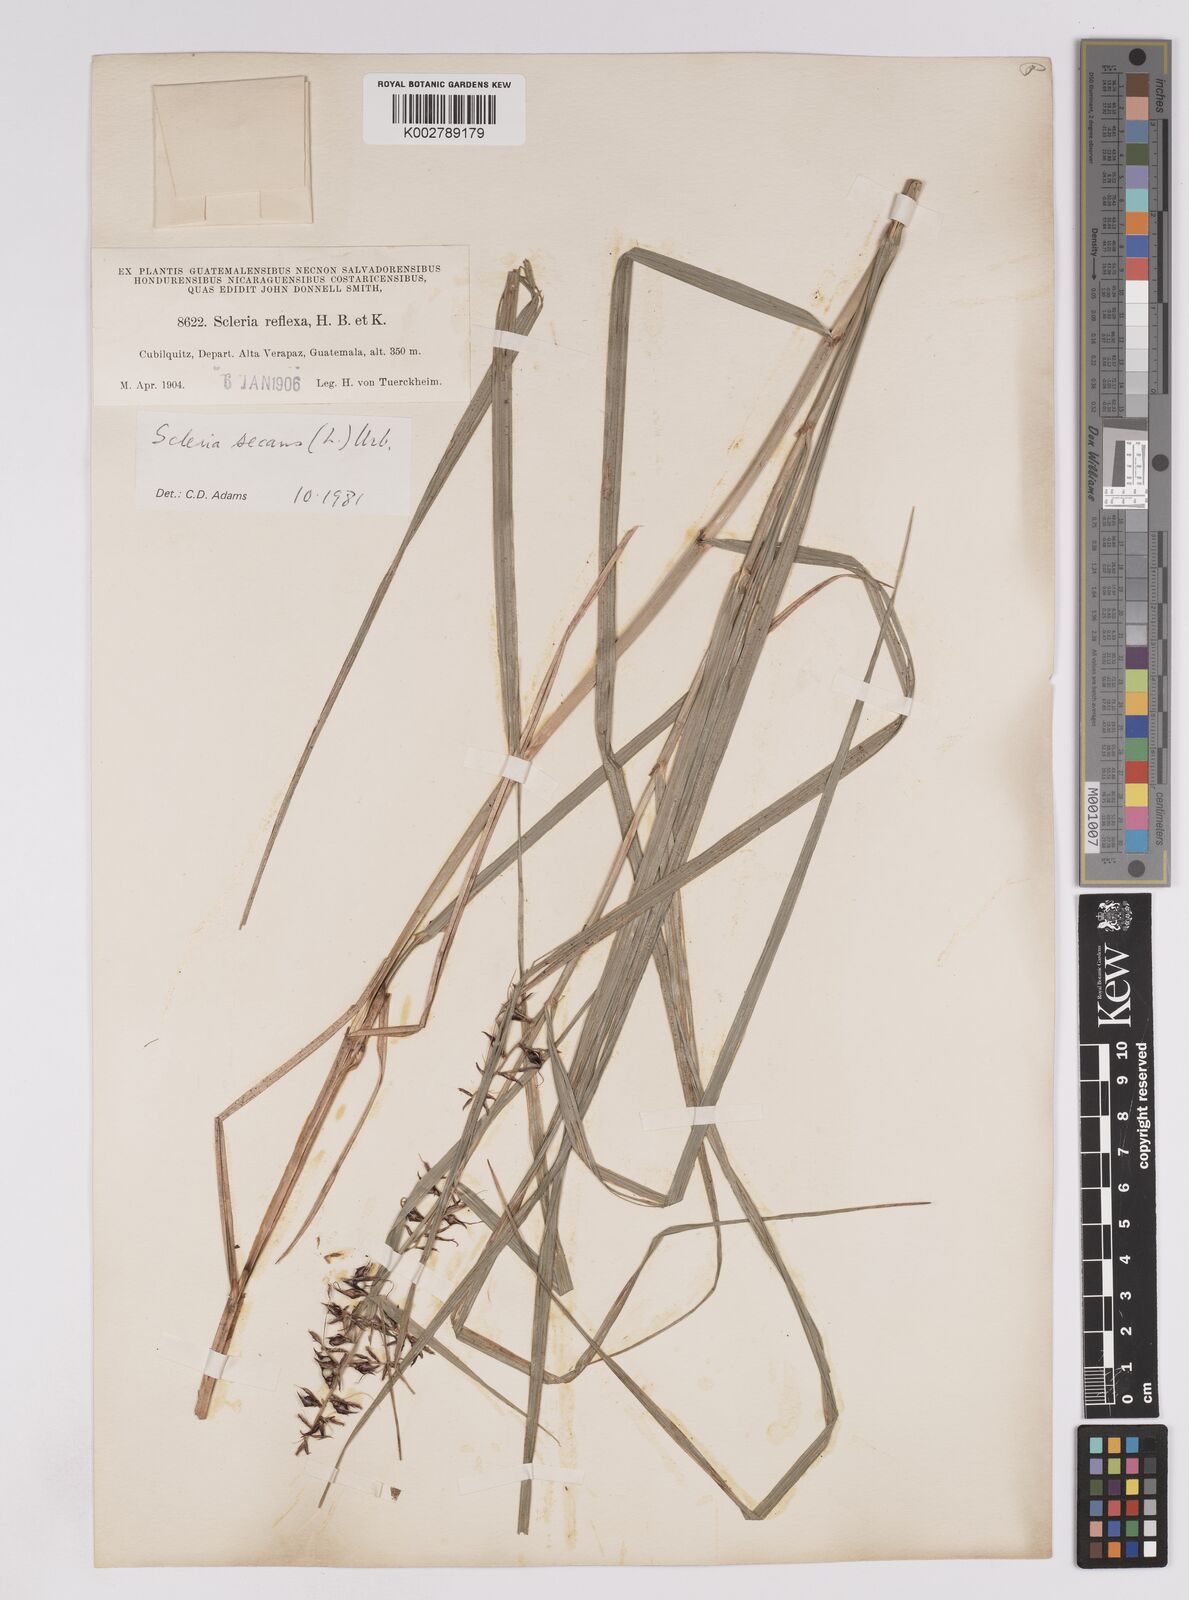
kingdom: Plantae
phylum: Tracheophyta
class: Liliopsida
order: Poales
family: Cyperaceae
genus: Scleria
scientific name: Scleria secans
